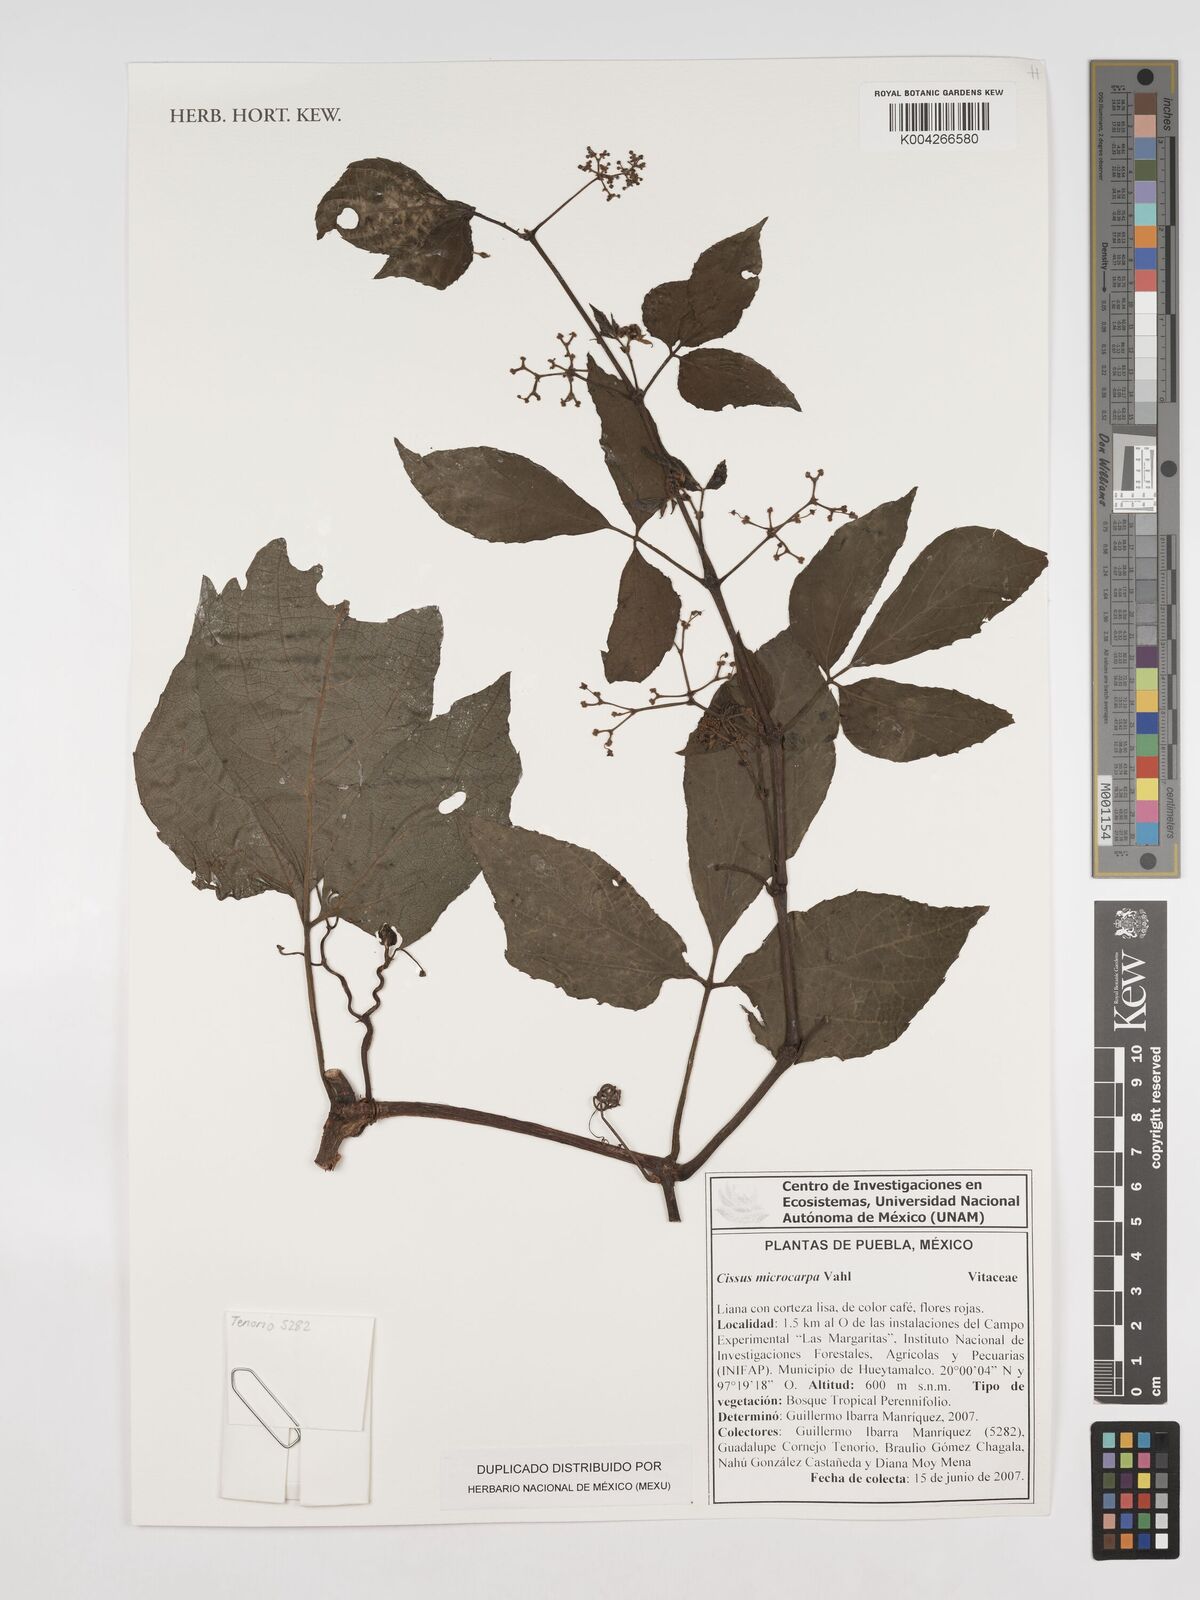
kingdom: Plantae
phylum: Tracheophyta
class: Magnoliopsida
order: Vitales
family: Vitaceae
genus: Cissus
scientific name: Cissus microcarpa
